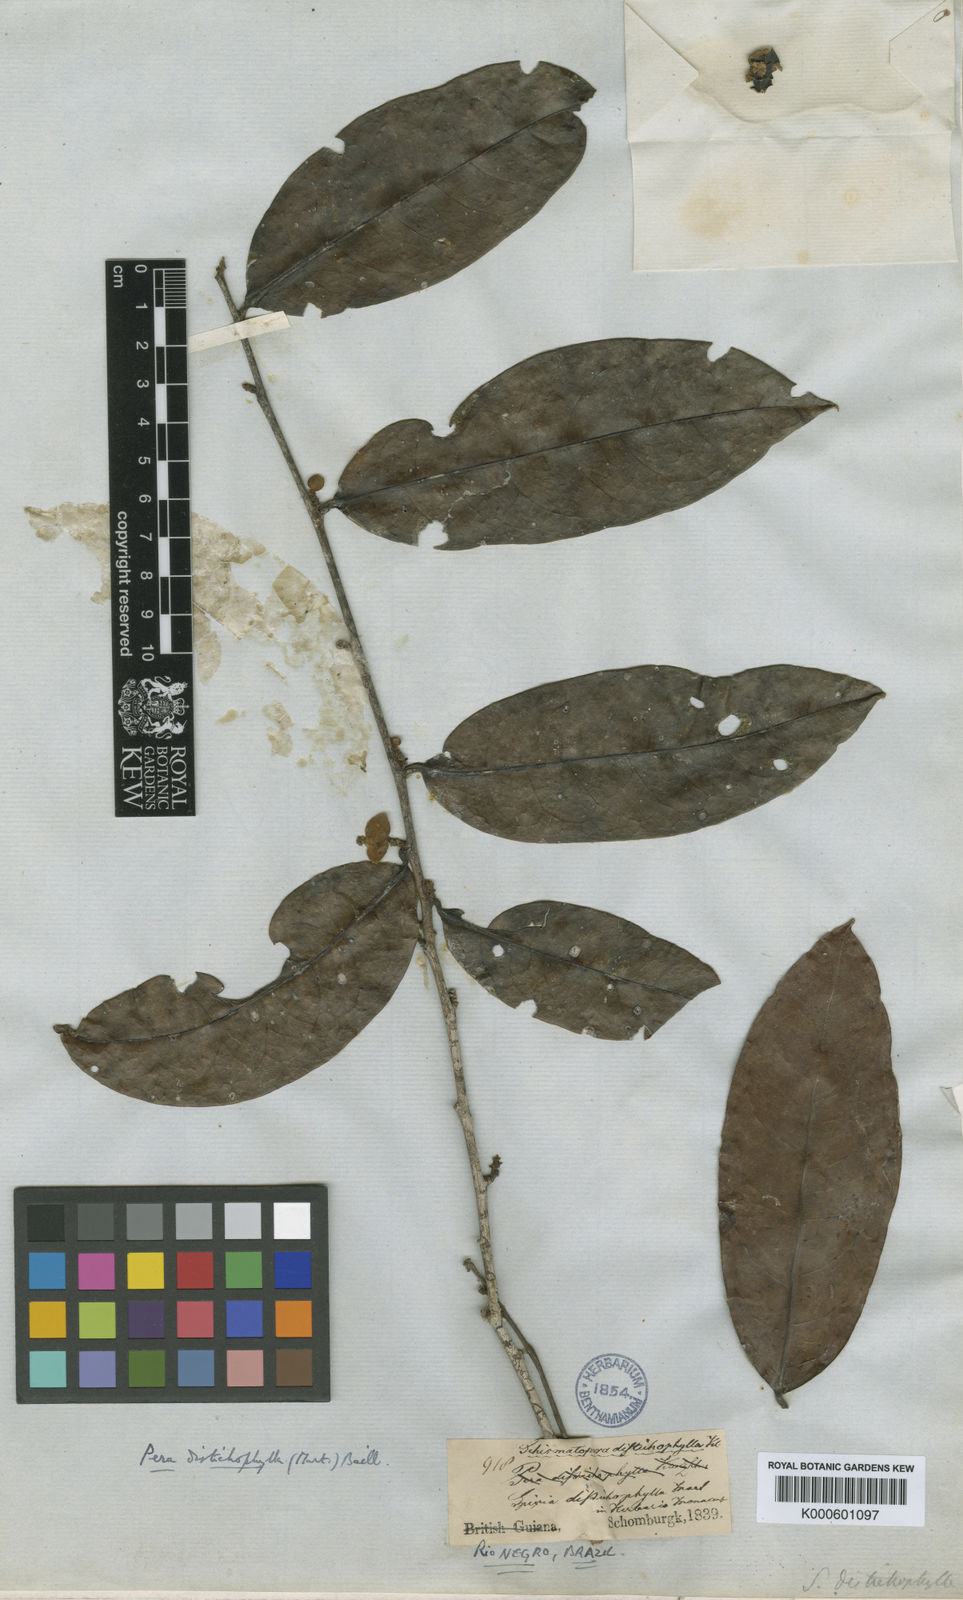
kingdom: Plantae
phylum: Tracheophyta
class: Magnoliopsida
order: Malpighiales
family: Peraceae
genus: Pera
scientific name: Pera distichophylla
